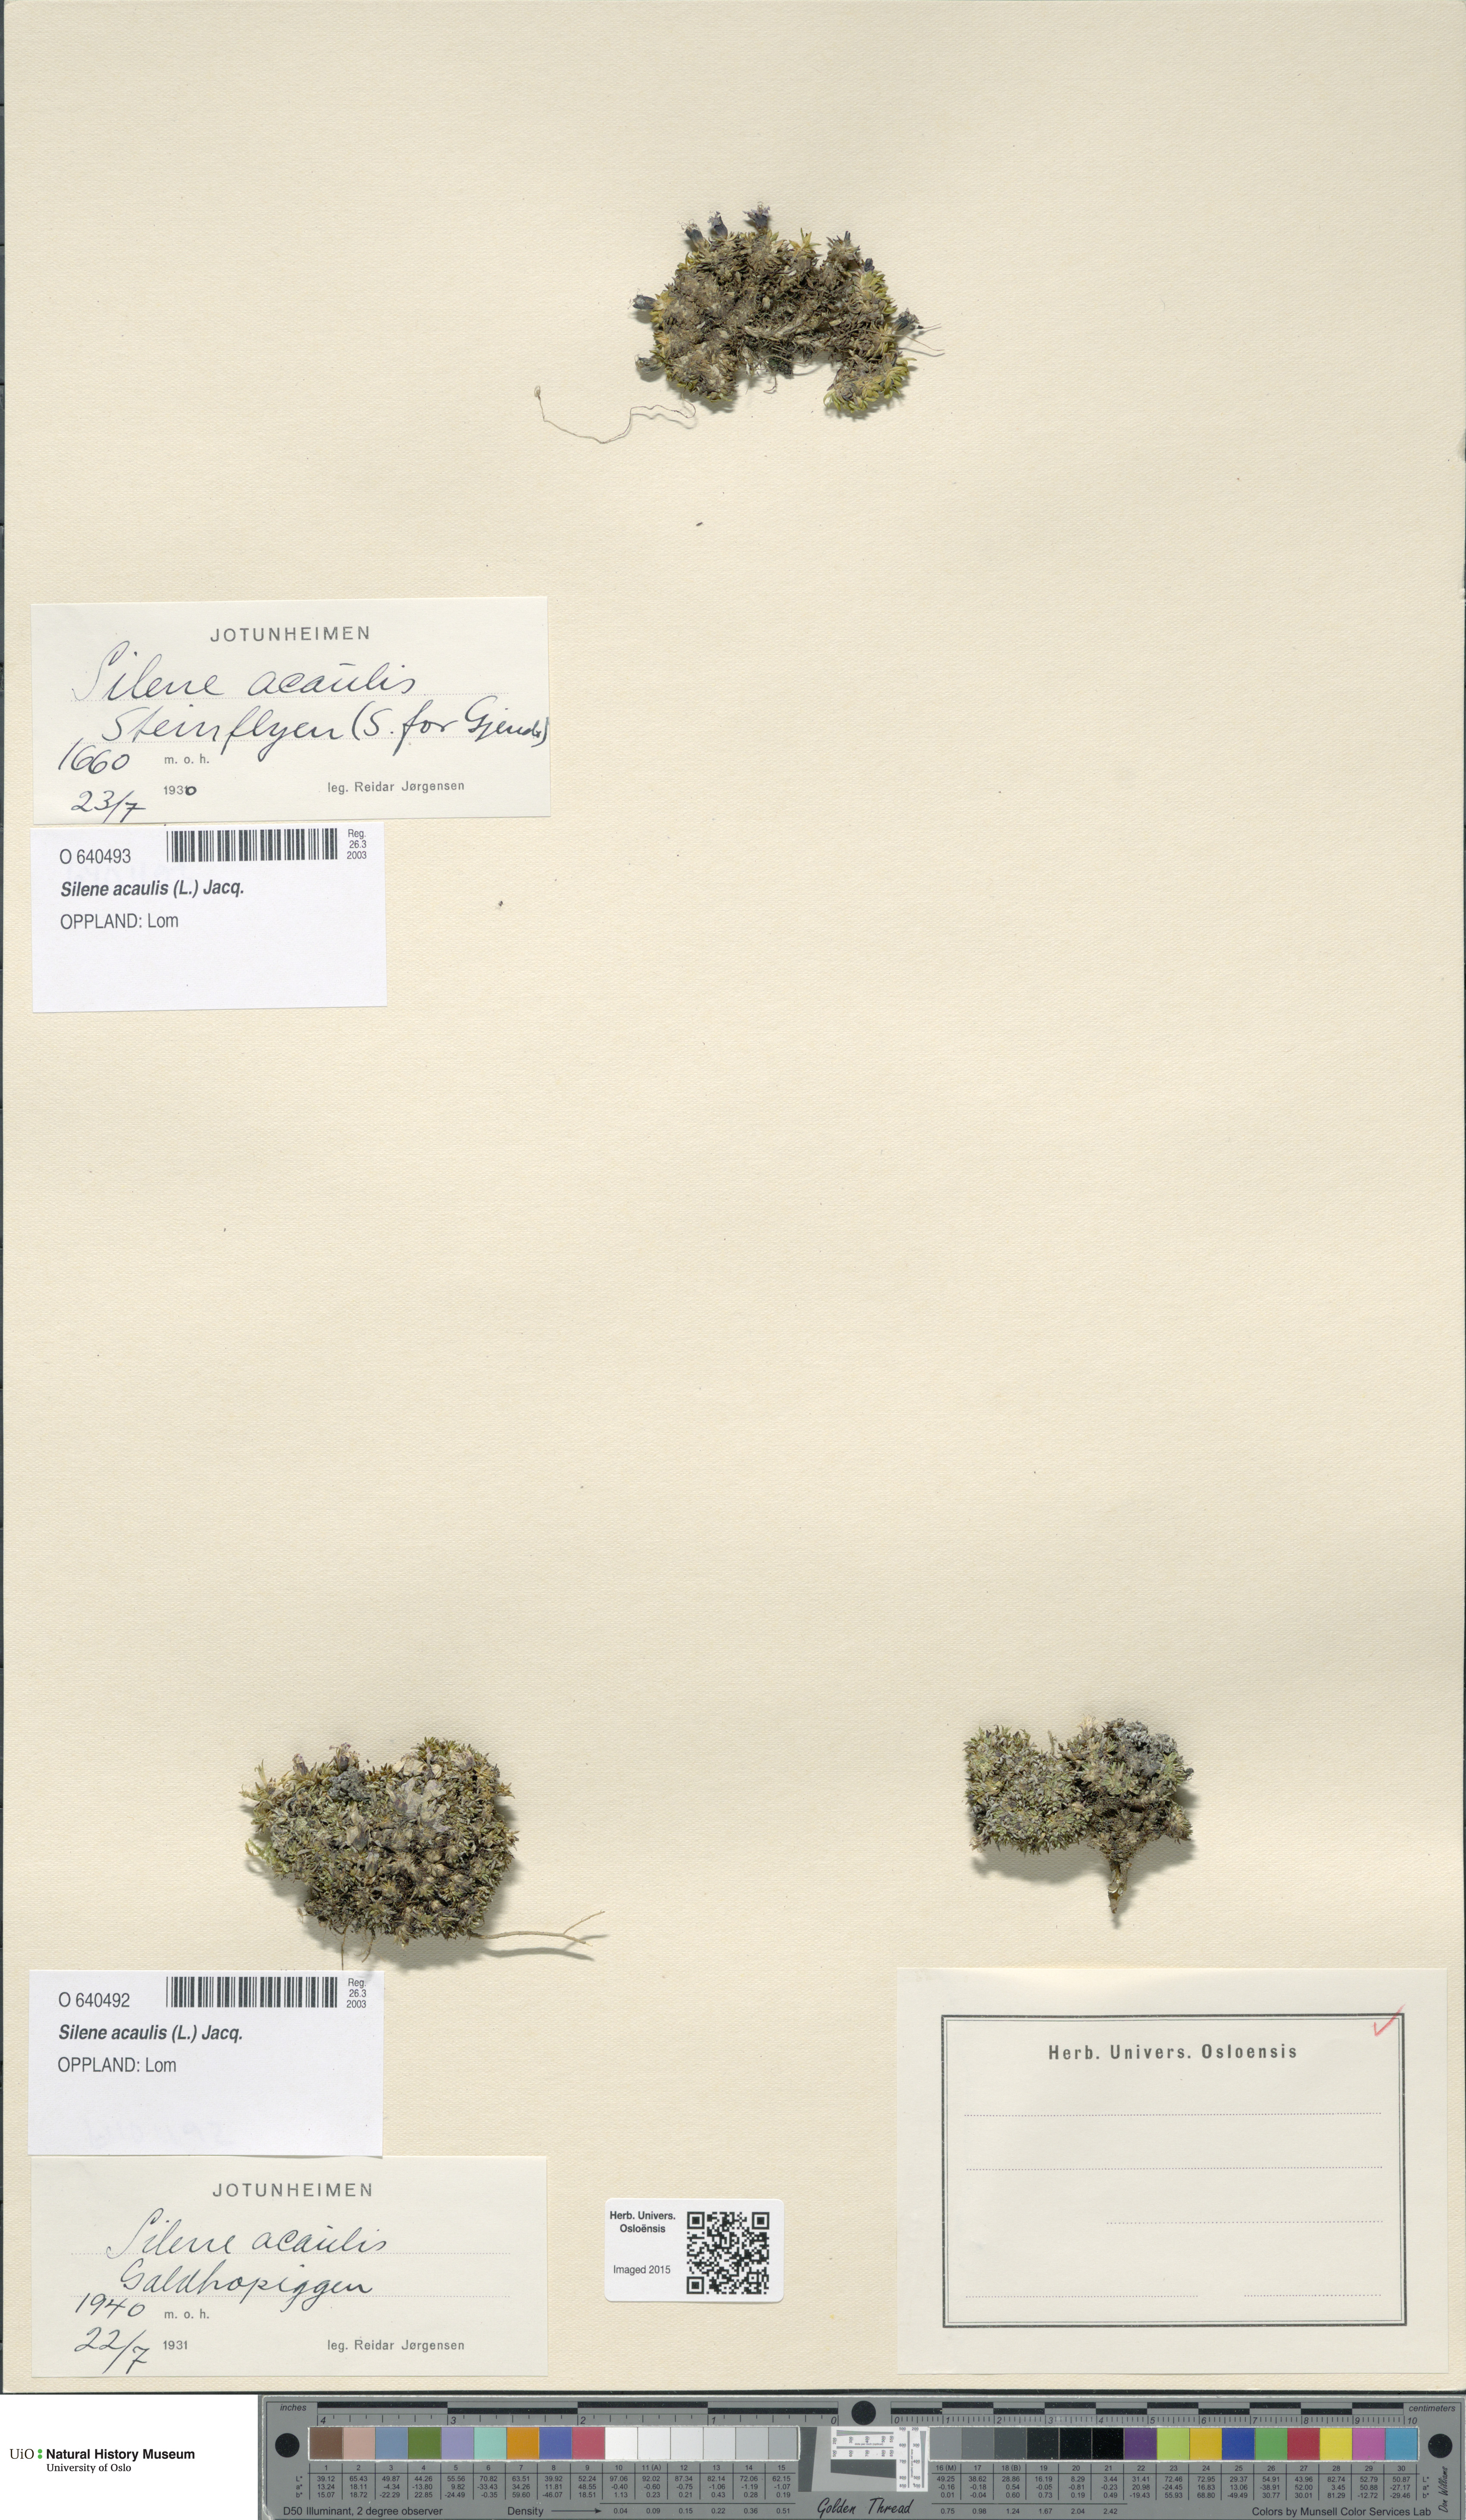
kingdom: Plantae
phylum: Tracheophyta
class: Magnoliopsida
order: Caryophyllales
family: Caryophyllaceae
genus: Silene
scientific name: Silene acaulis
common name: Moss campion
